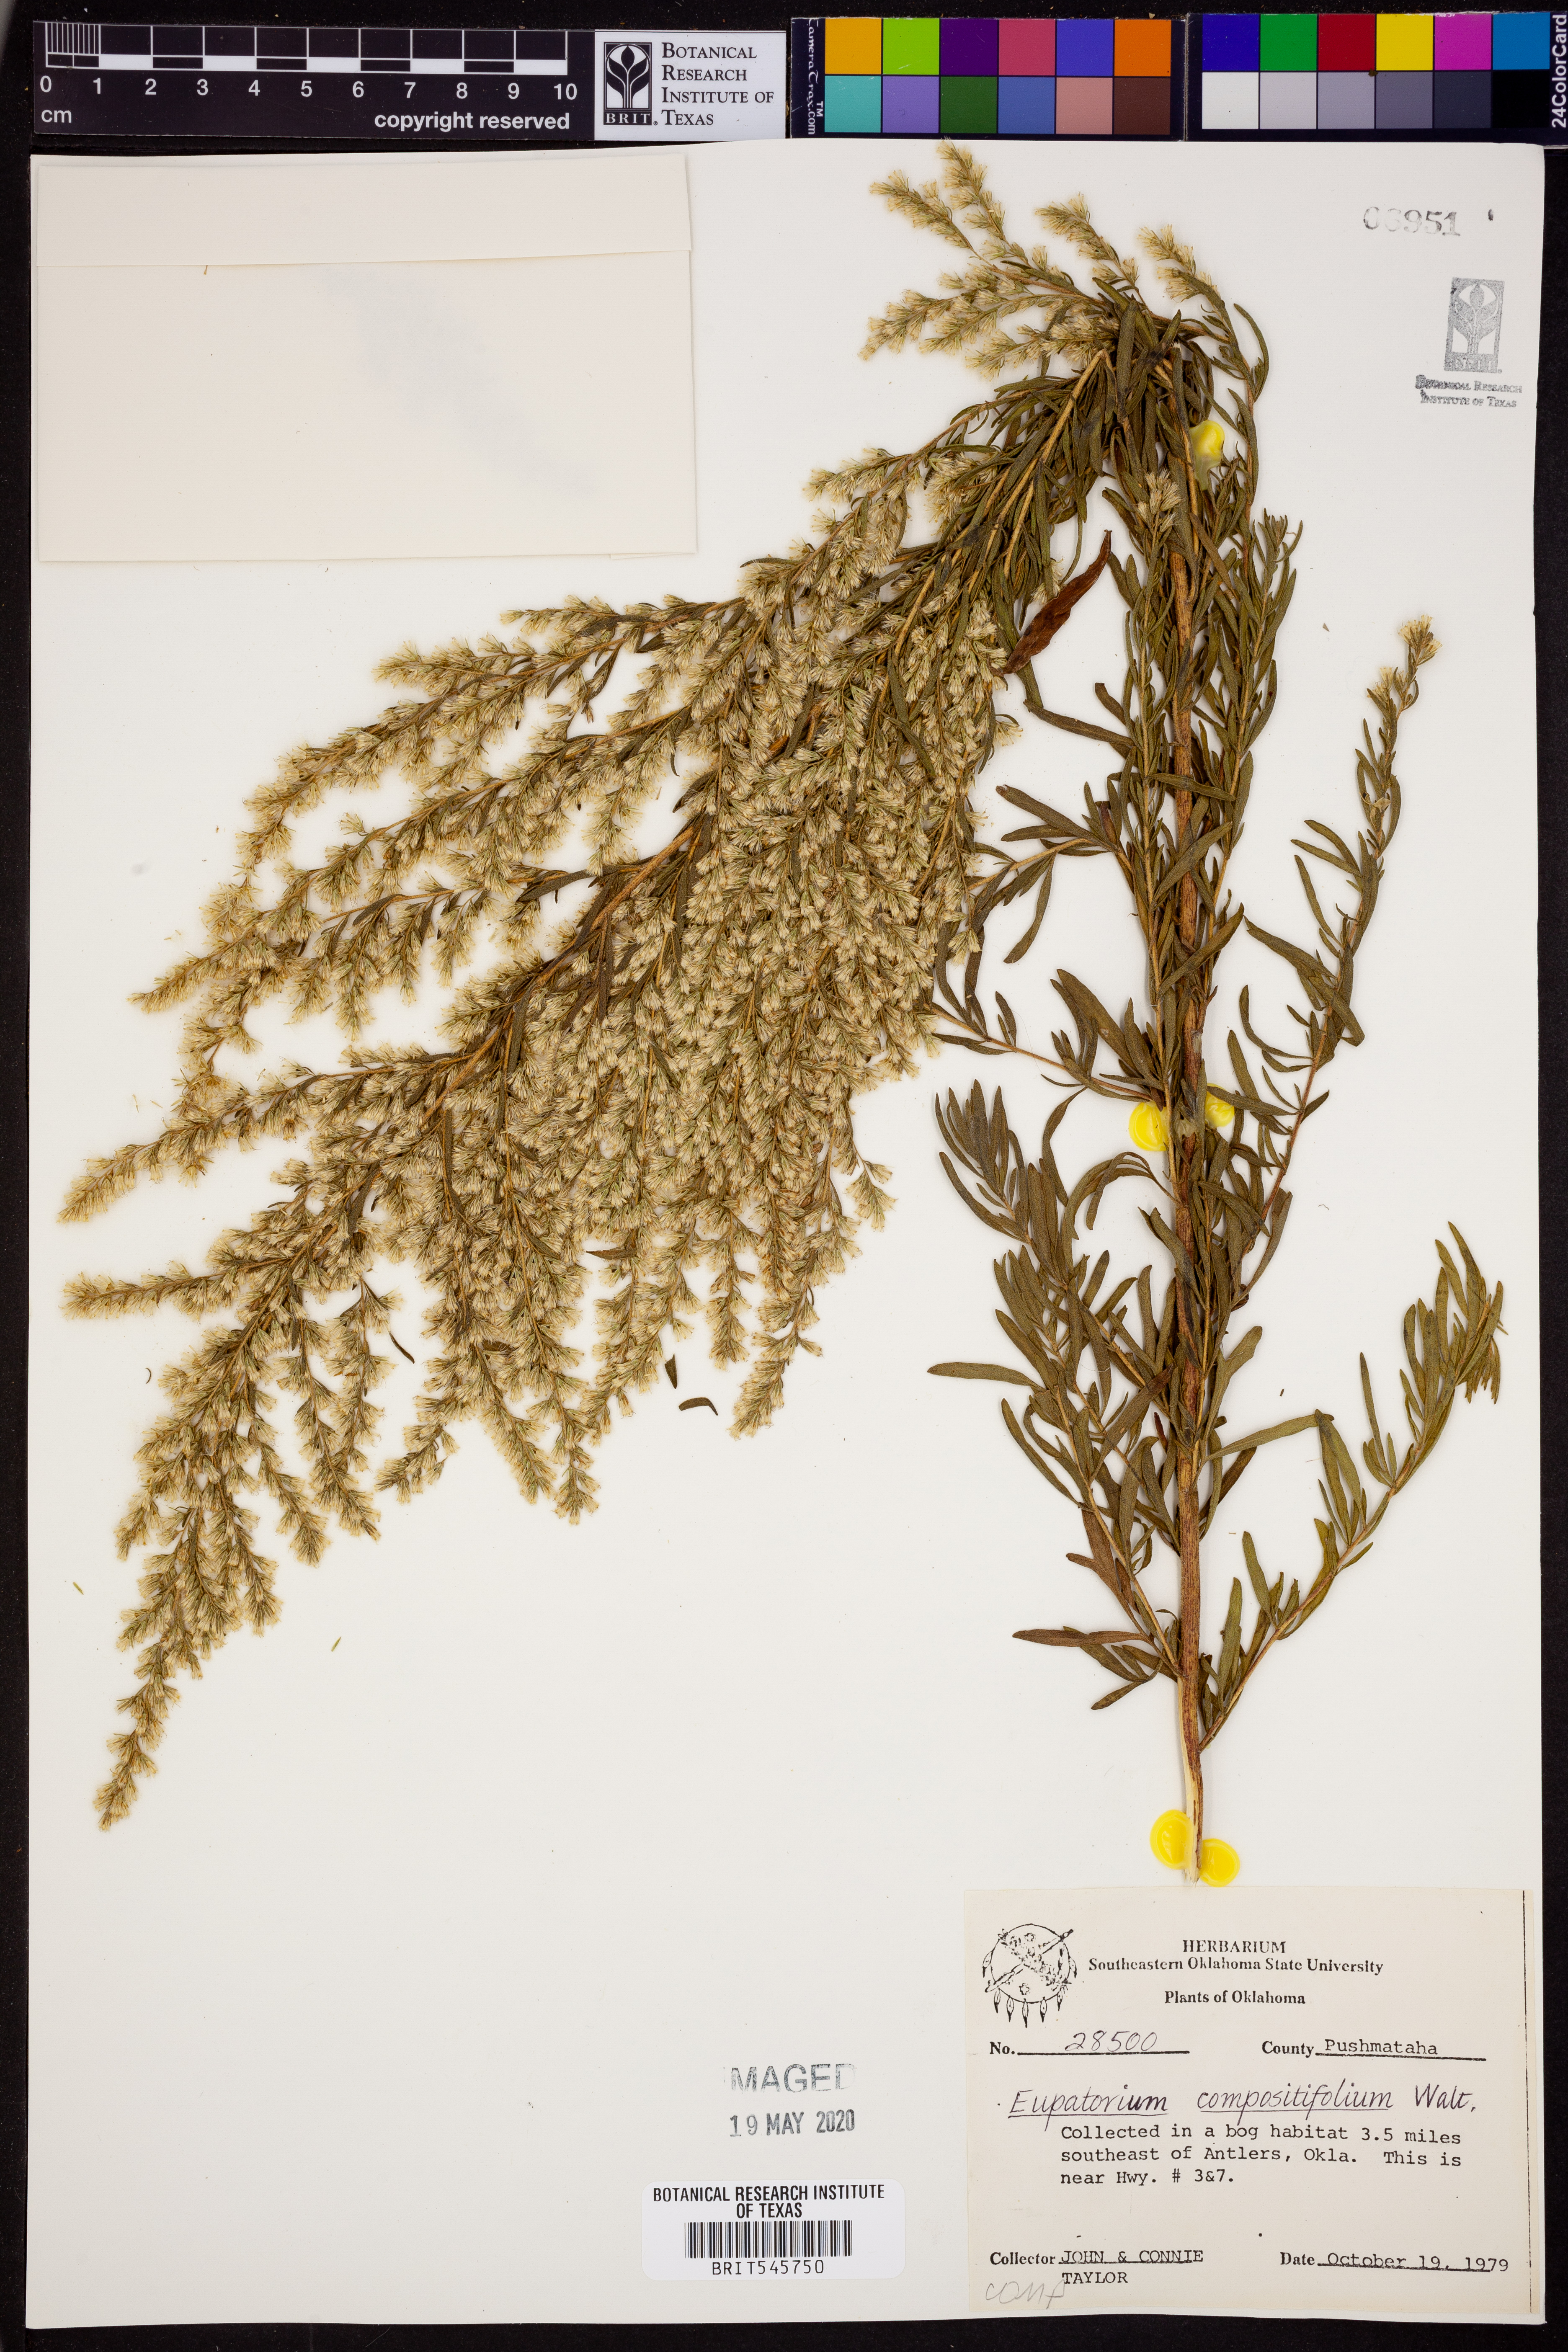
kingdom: Plantae
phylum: Tracheophyta
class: Magnoliopsida
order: Asterales
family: Asteraceae
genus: Eupatorium
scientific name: Eupatorium compositifolium
